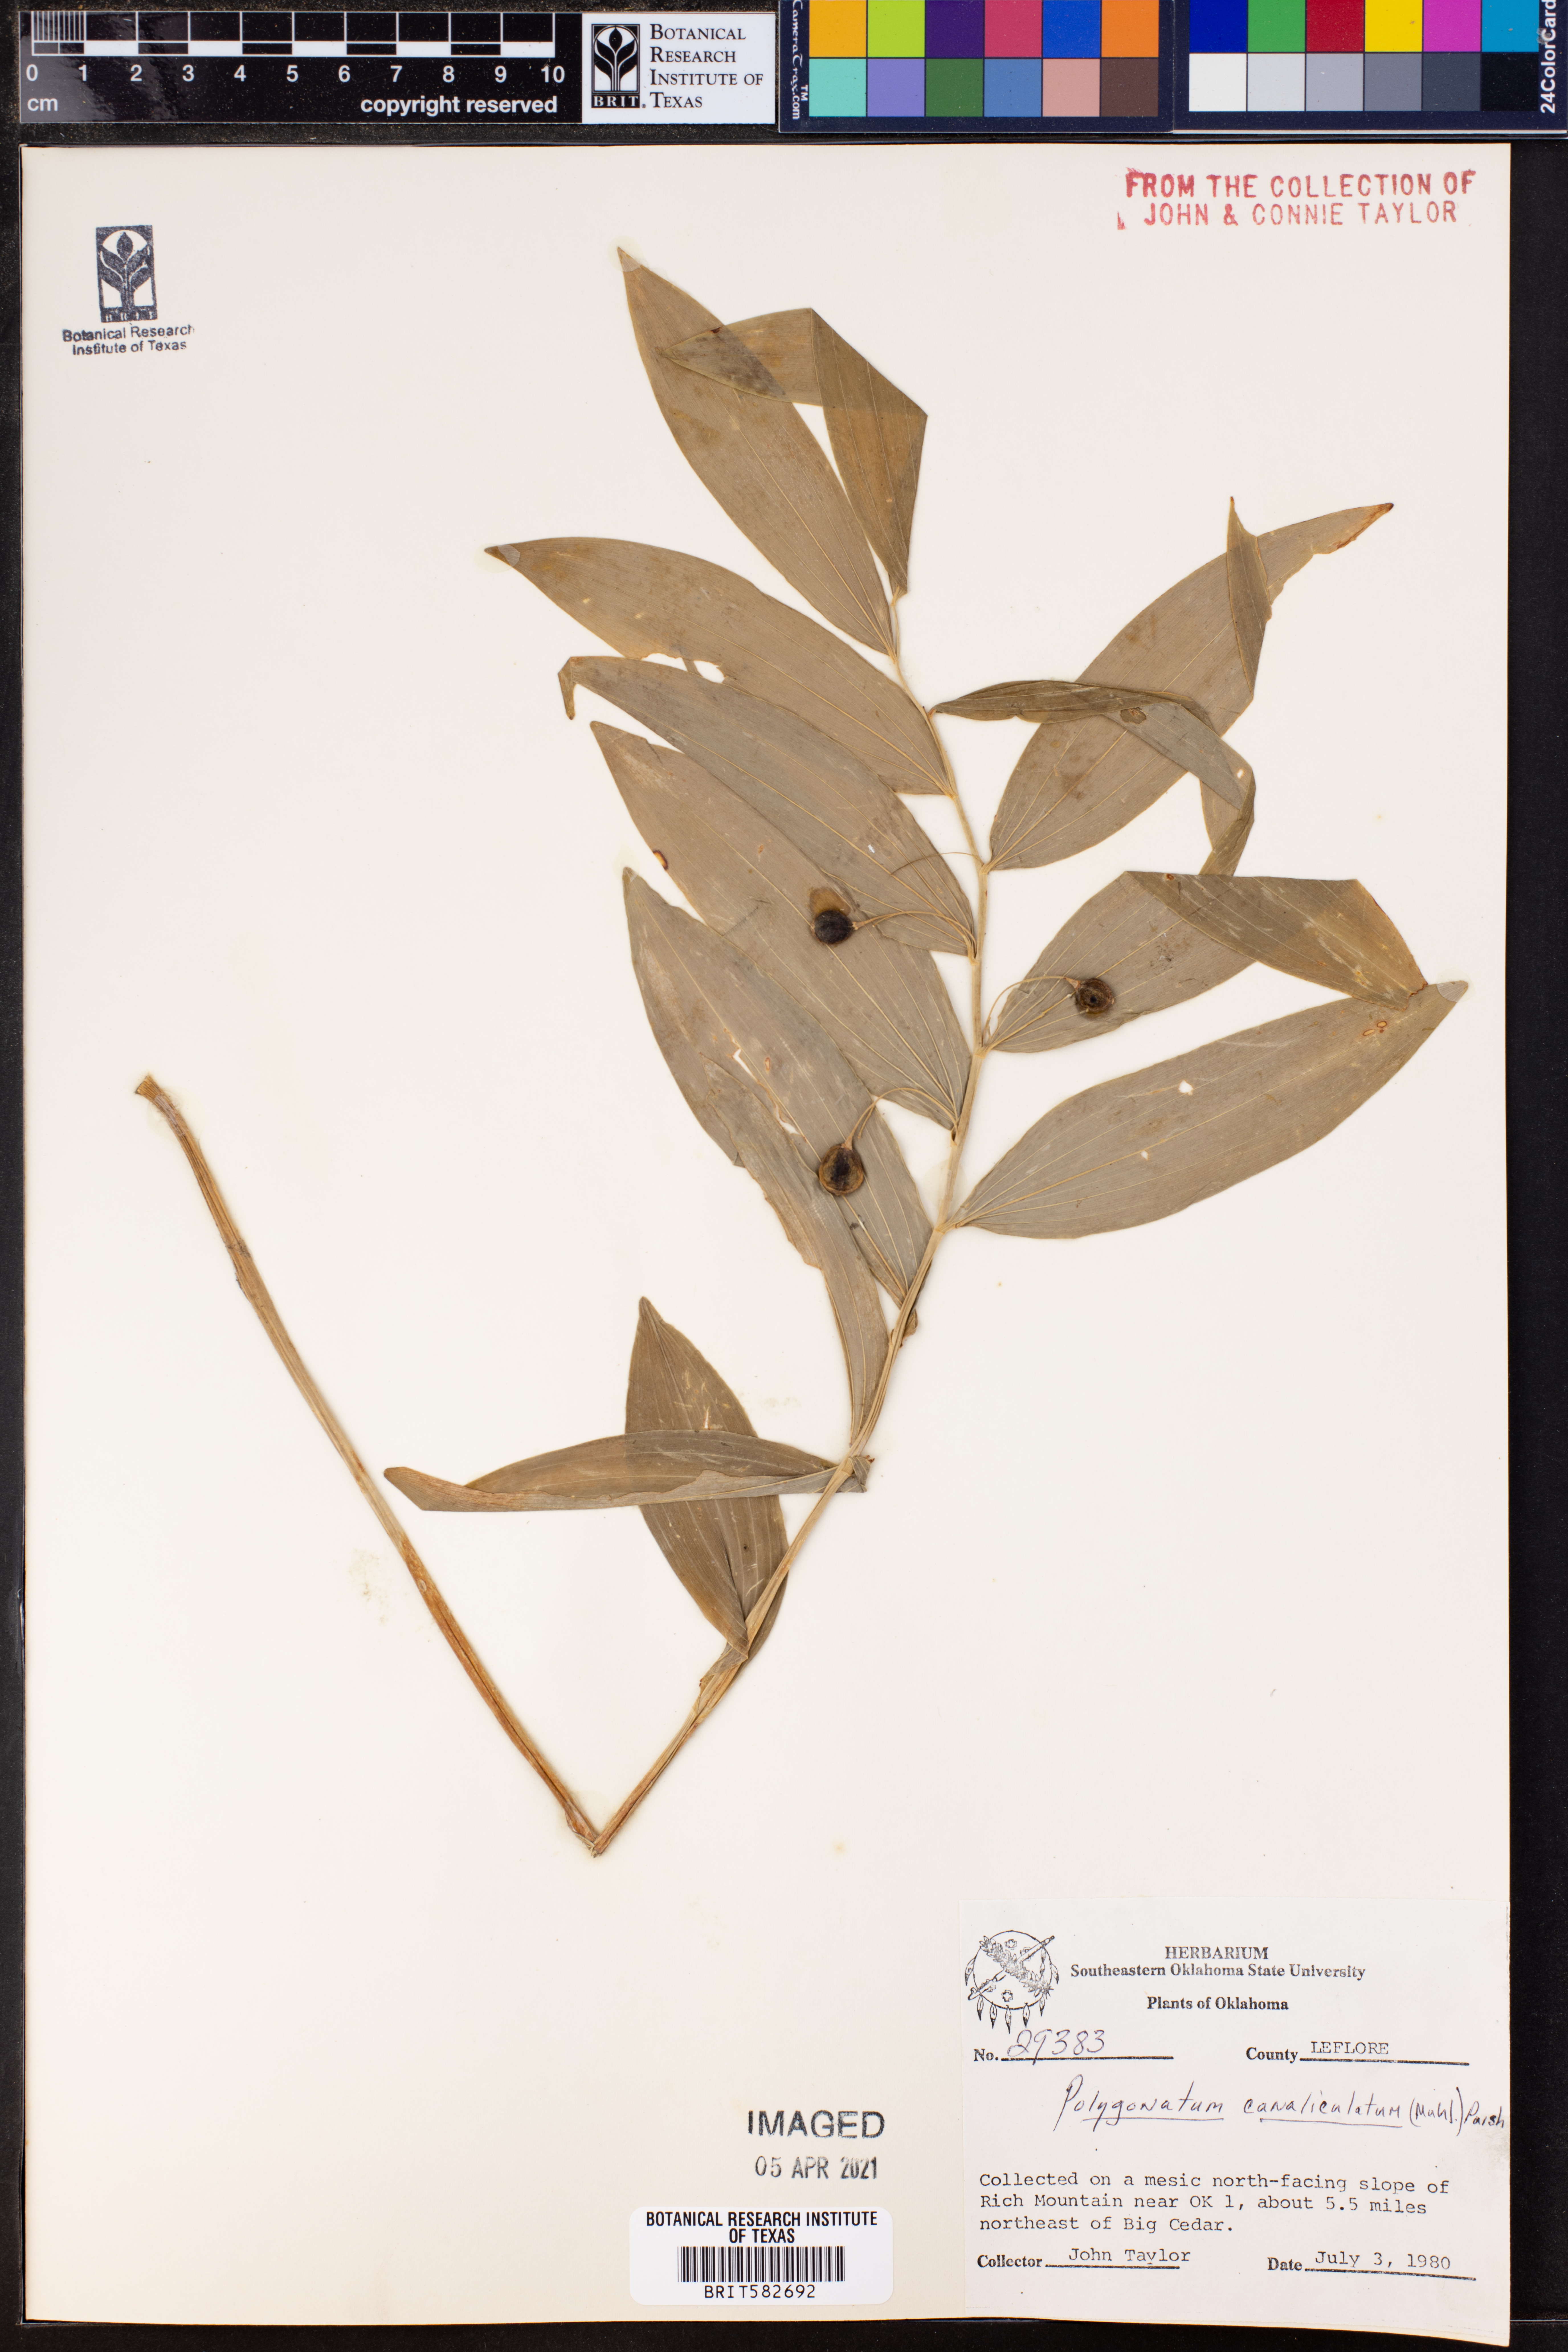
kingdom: Plantae
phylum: Tracheophyta
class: Liliopsida
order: Asparagales
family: Asparagaceae
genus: Polygonatum
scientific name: Polygonatum biflorum
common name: American solomon's-seal
